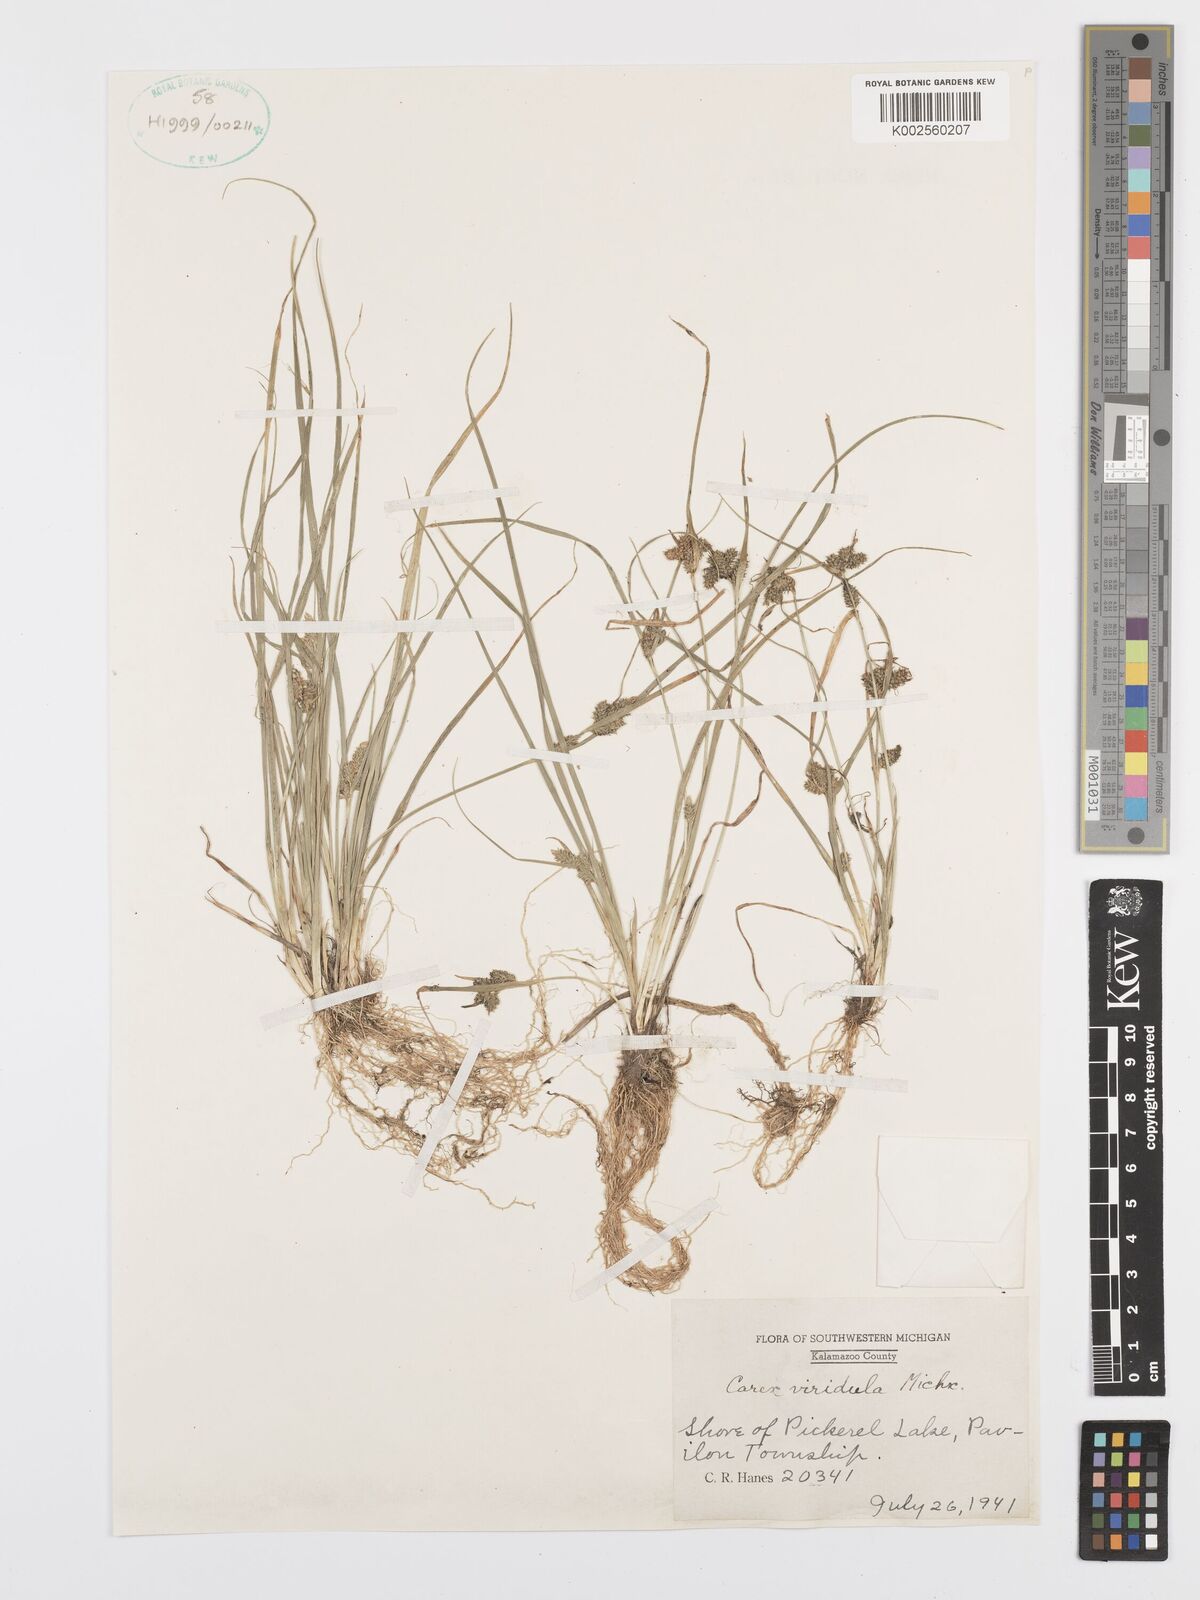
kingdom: Plantae
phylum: Tracheophyta
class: Liliopsida
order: Poales
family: Cyperaceae
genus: Carex
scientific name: Carex oederi
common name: Common & small-fruited yellow-sedge
